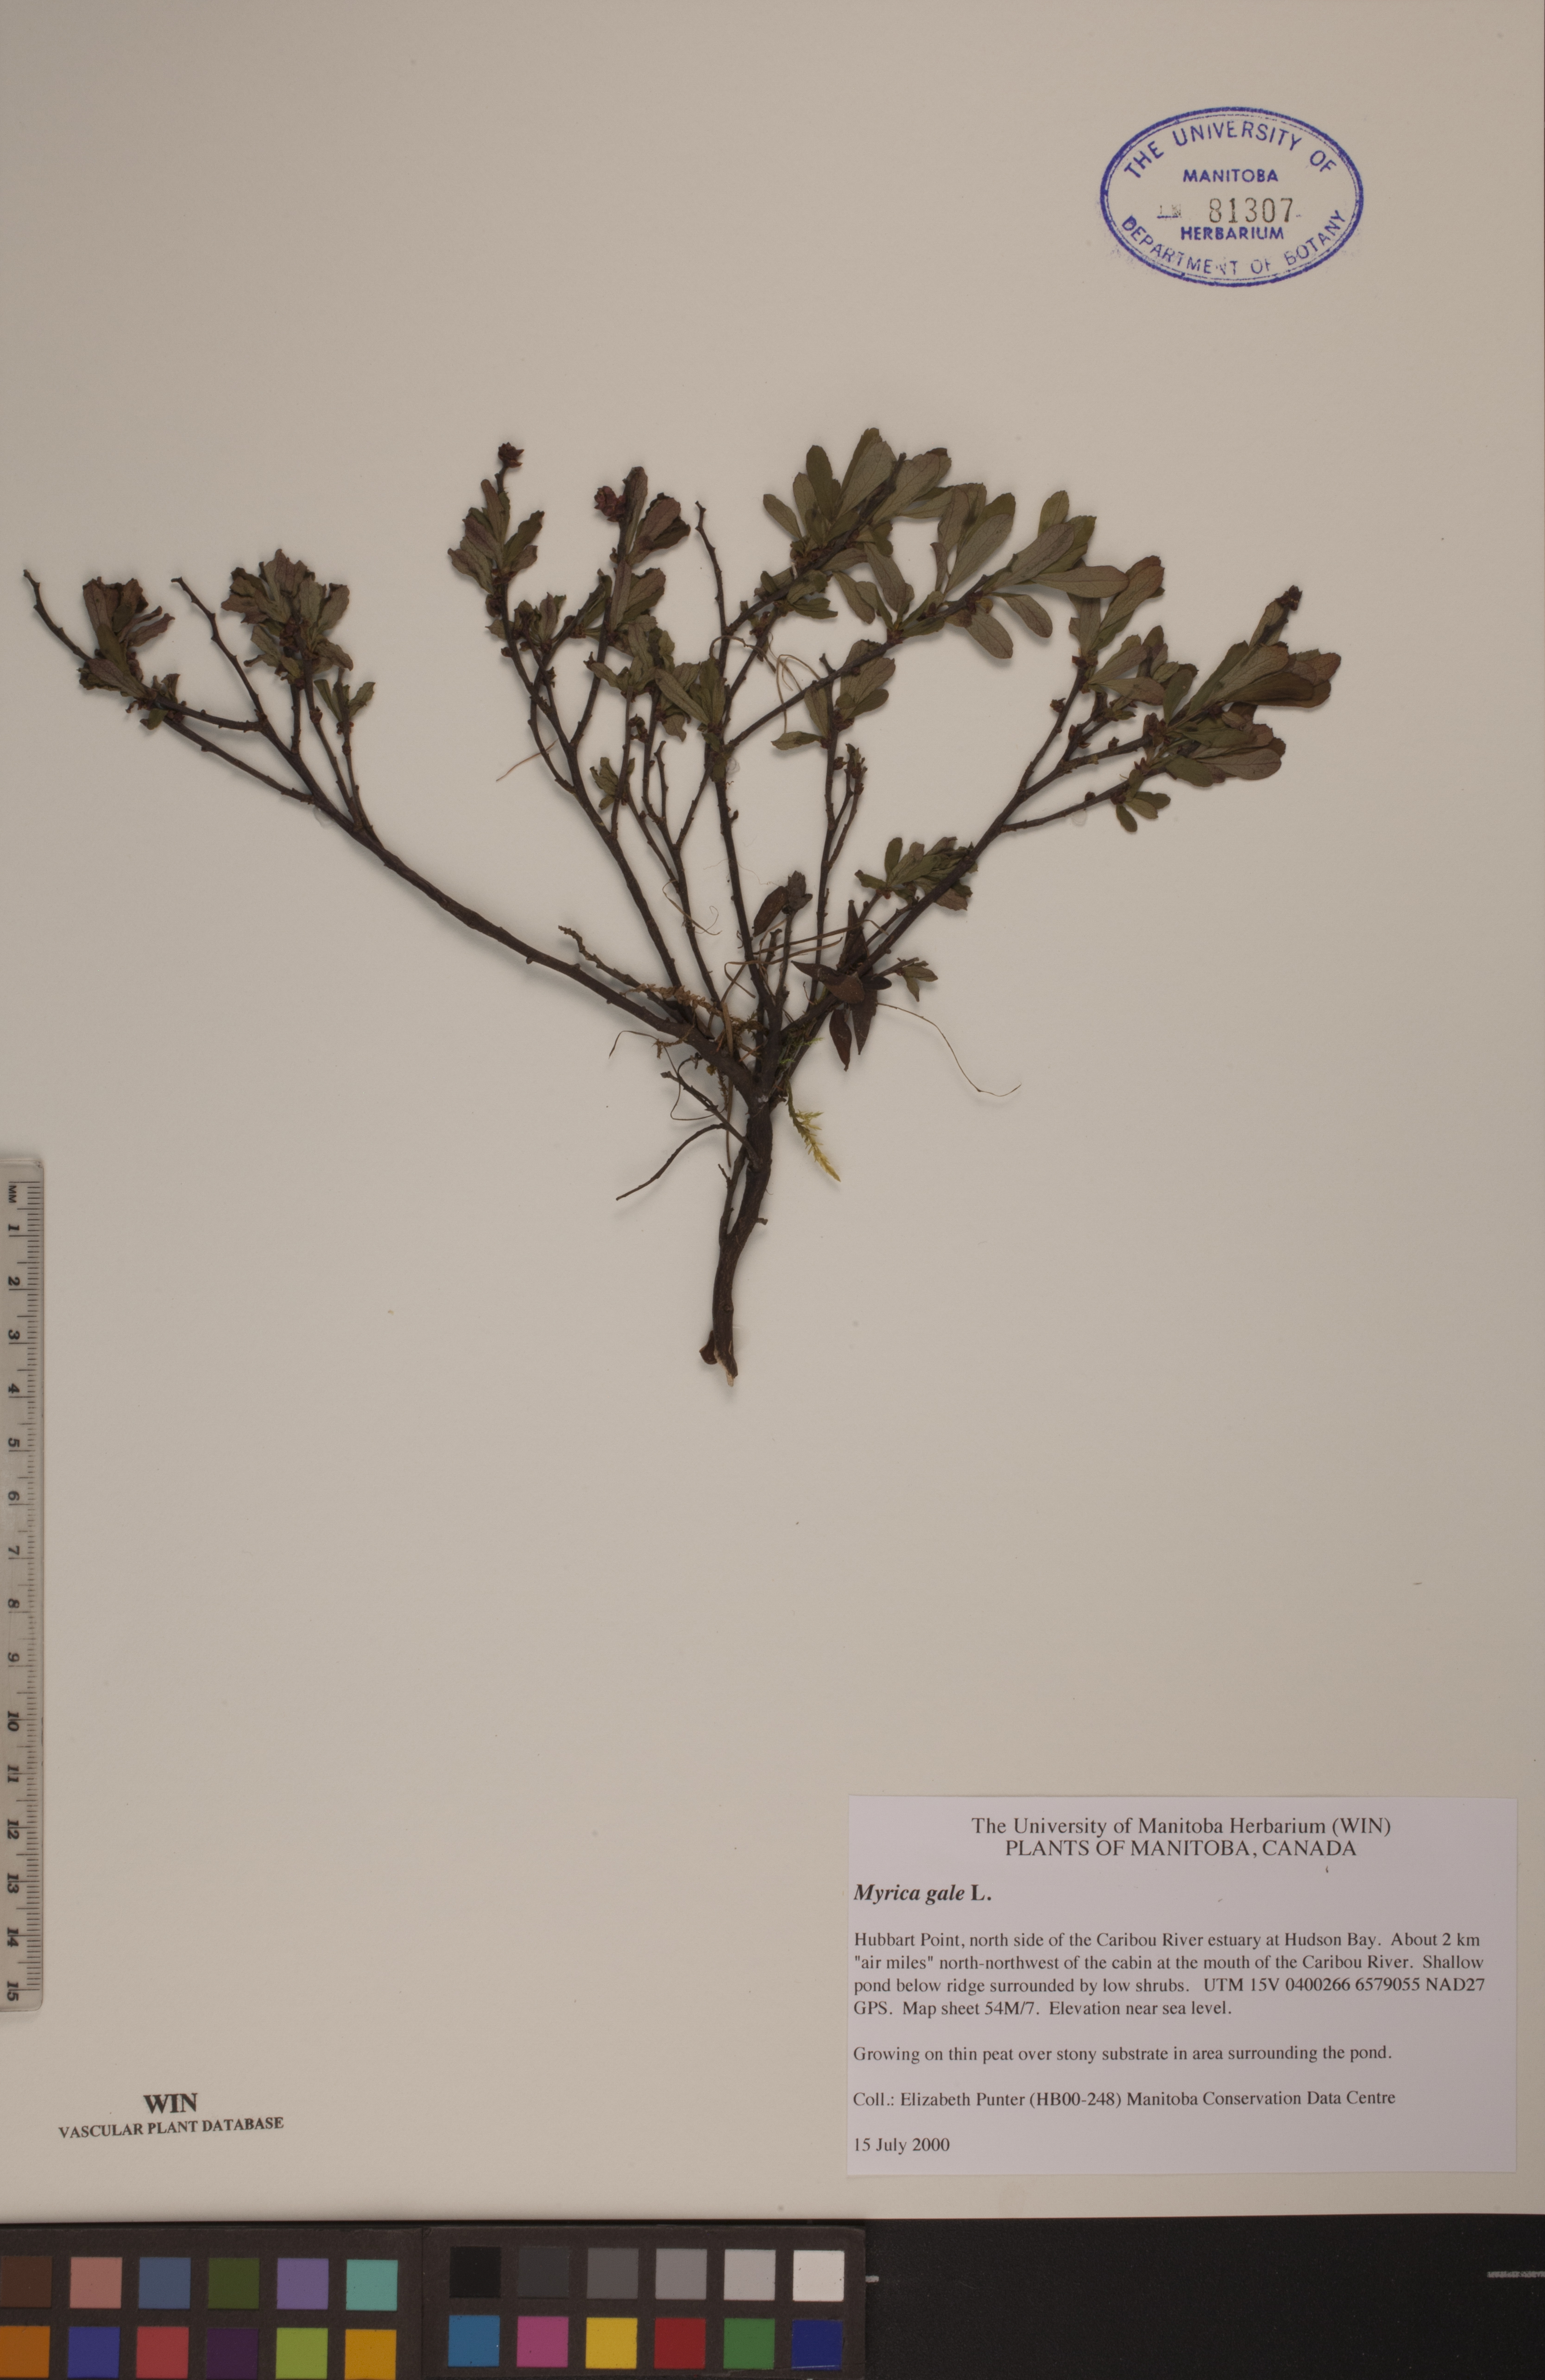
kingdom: Plantae
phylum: Tracheophyta
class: Magnoliopsida
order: Fagales
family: Myricaceae
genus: Myrica
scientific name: Myrica gale
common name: Sweet gale
